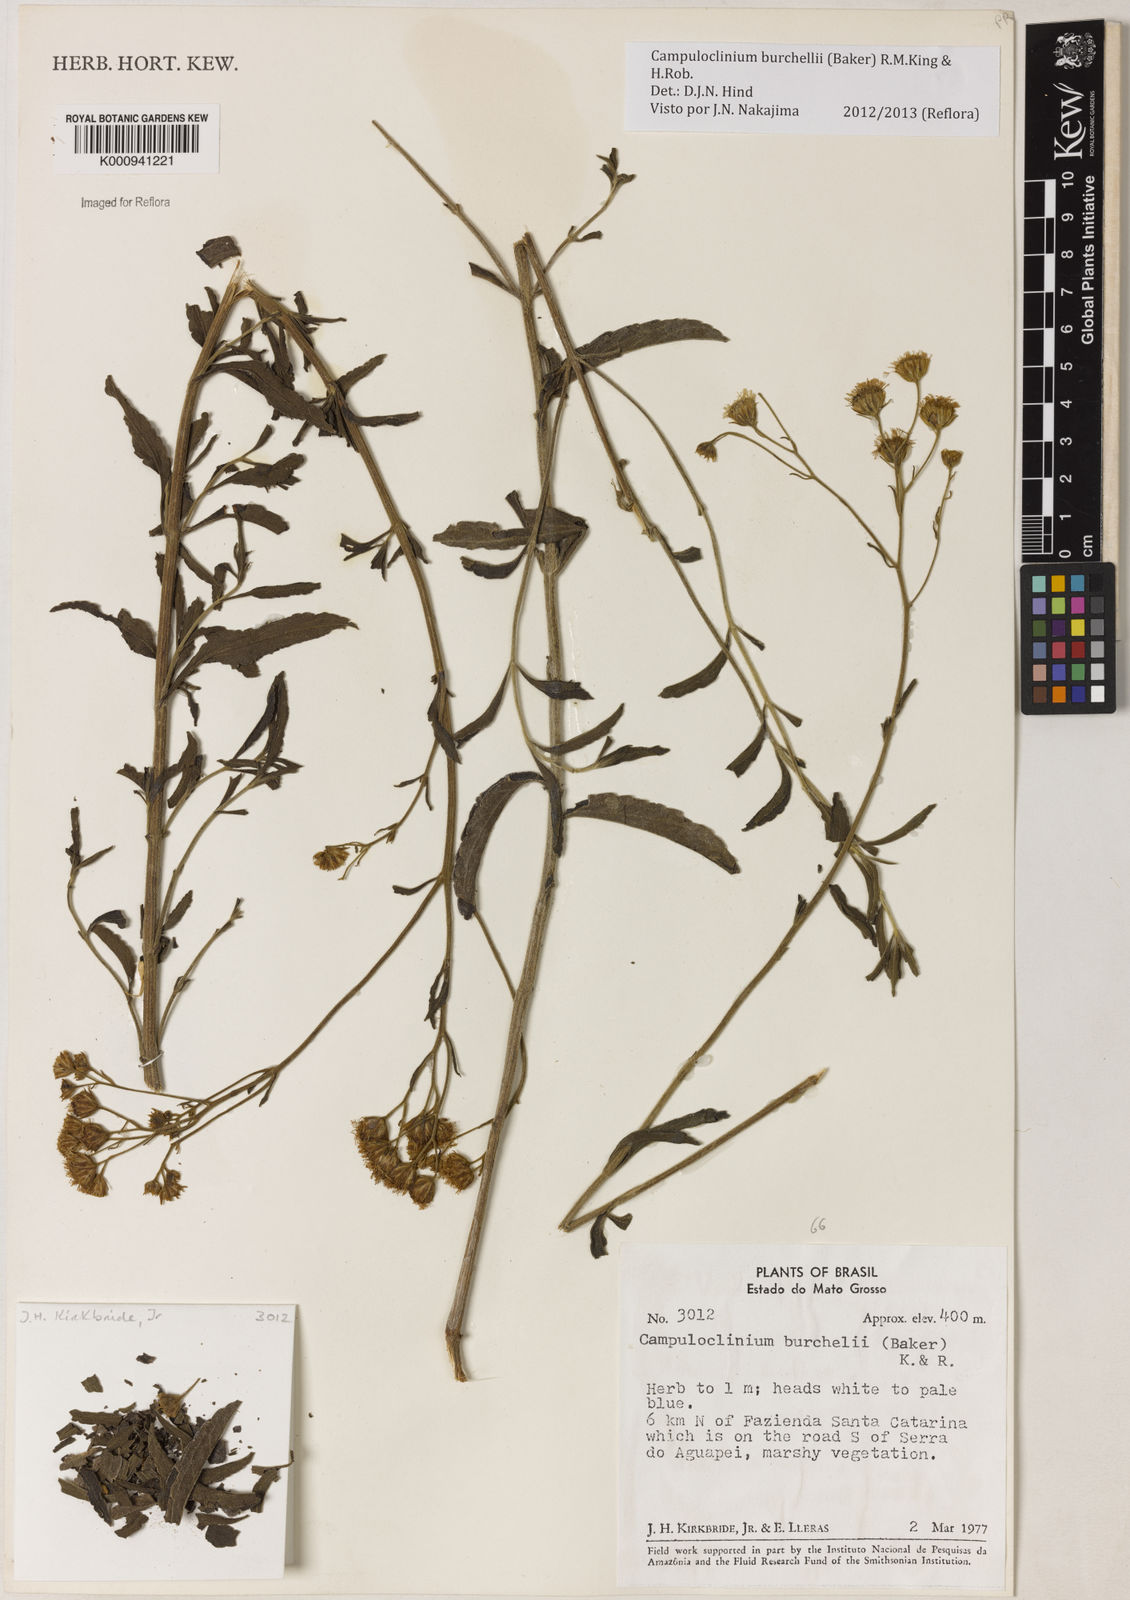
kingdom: Plantae
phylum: Tracheophyta
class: Magnoliopsida
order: Asterales
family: Asteraceae
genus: Campuloclinium
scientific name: Campuloclinium burchellii
